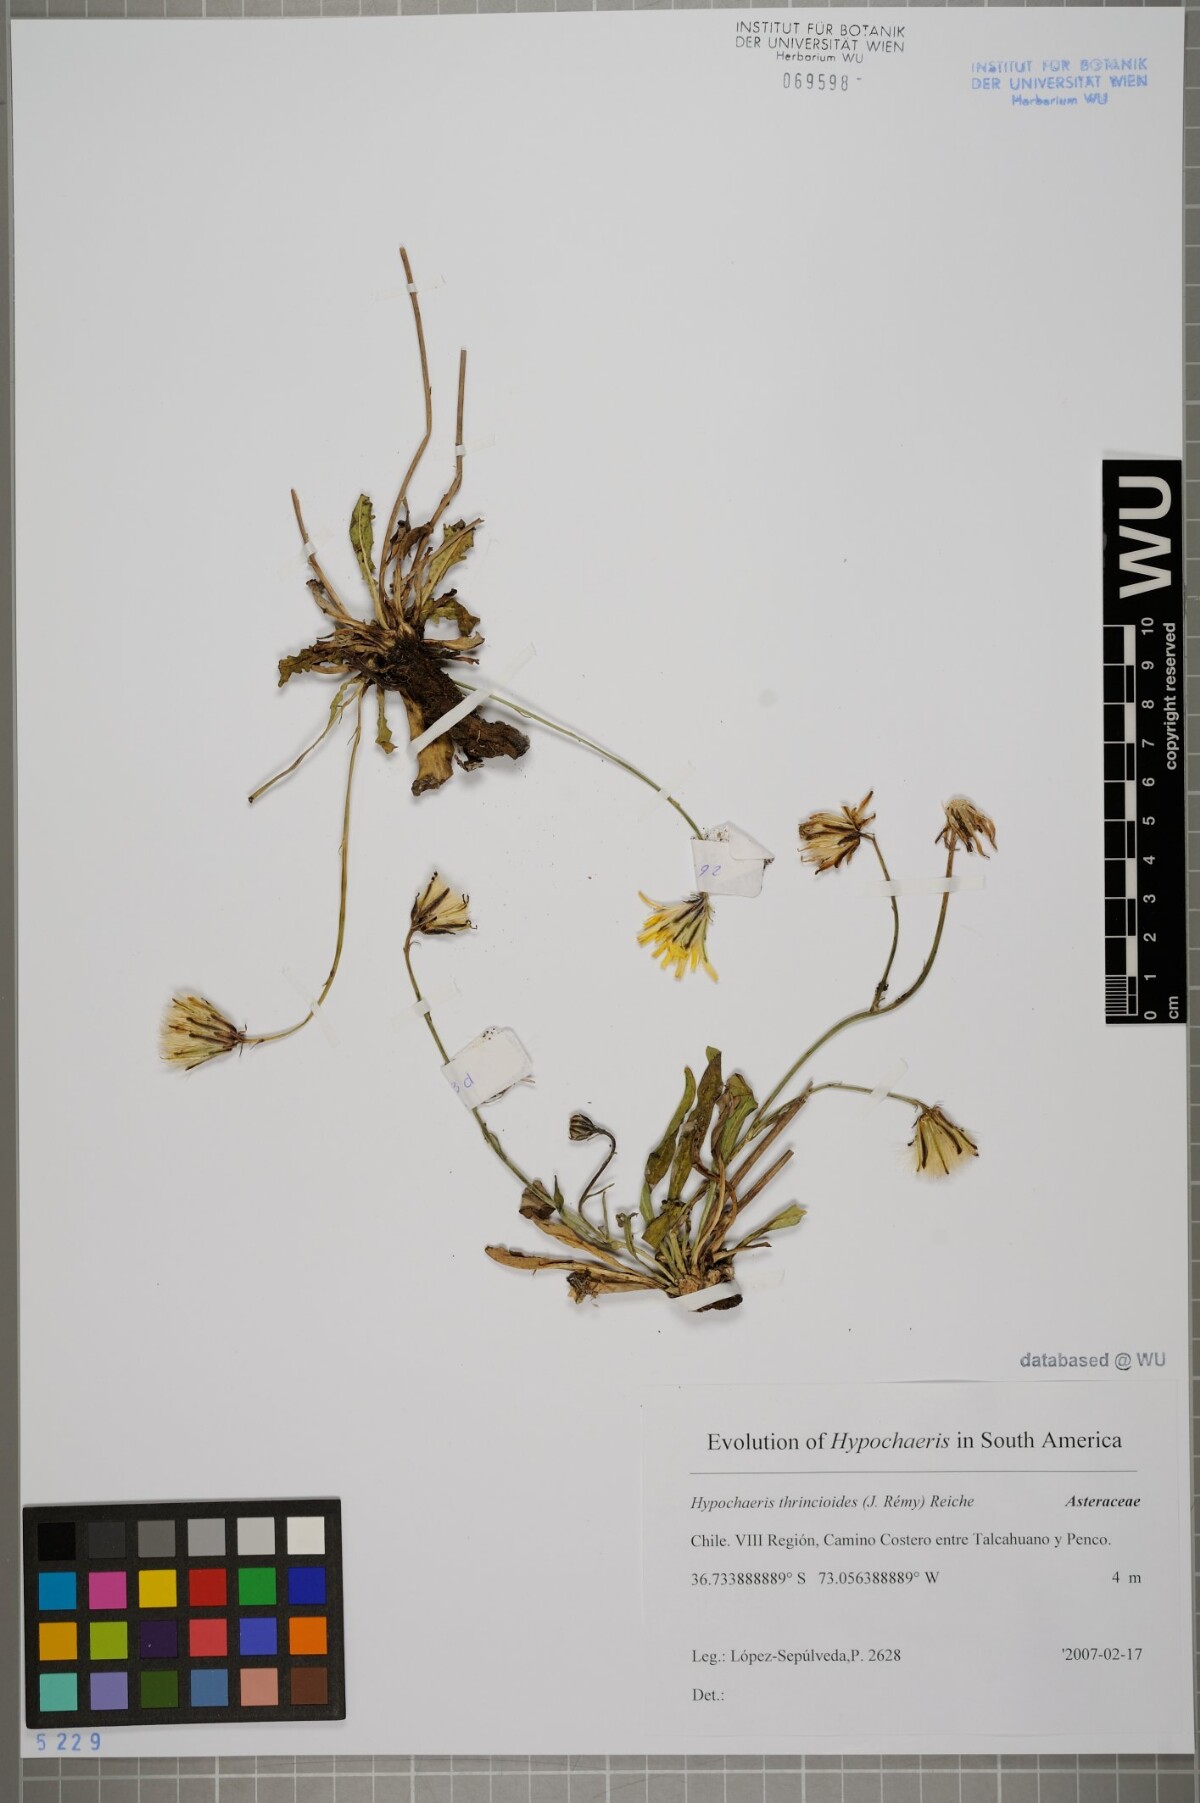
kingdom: Plantae
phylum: Tracheophyta
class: Magnoliopsida
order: Asterales
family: Asteraceae
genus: Hypochaeris
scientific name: Hypochaeris apargioides
